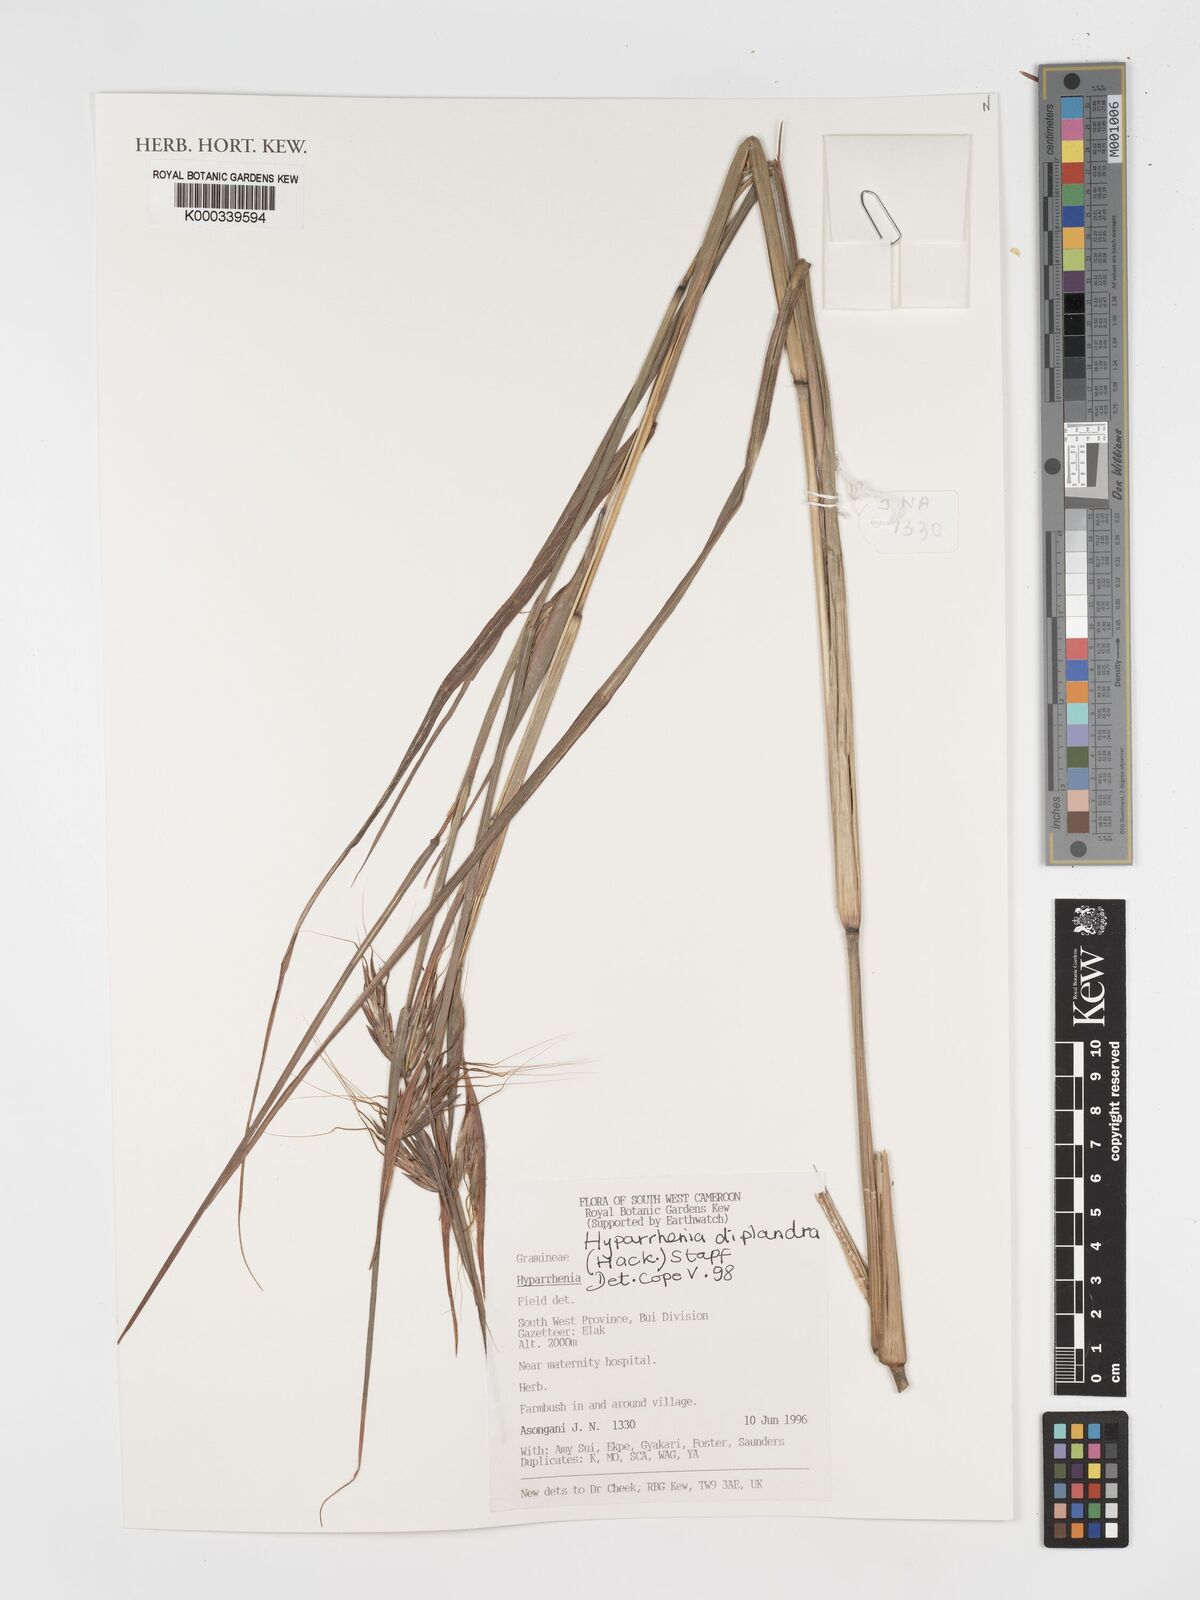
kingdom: Plantae
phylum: Tracheophyta
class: Liliopsida
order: Poales
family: Poaceae
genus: Hyparrhenia
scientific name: Hyparrhenia diplandra
